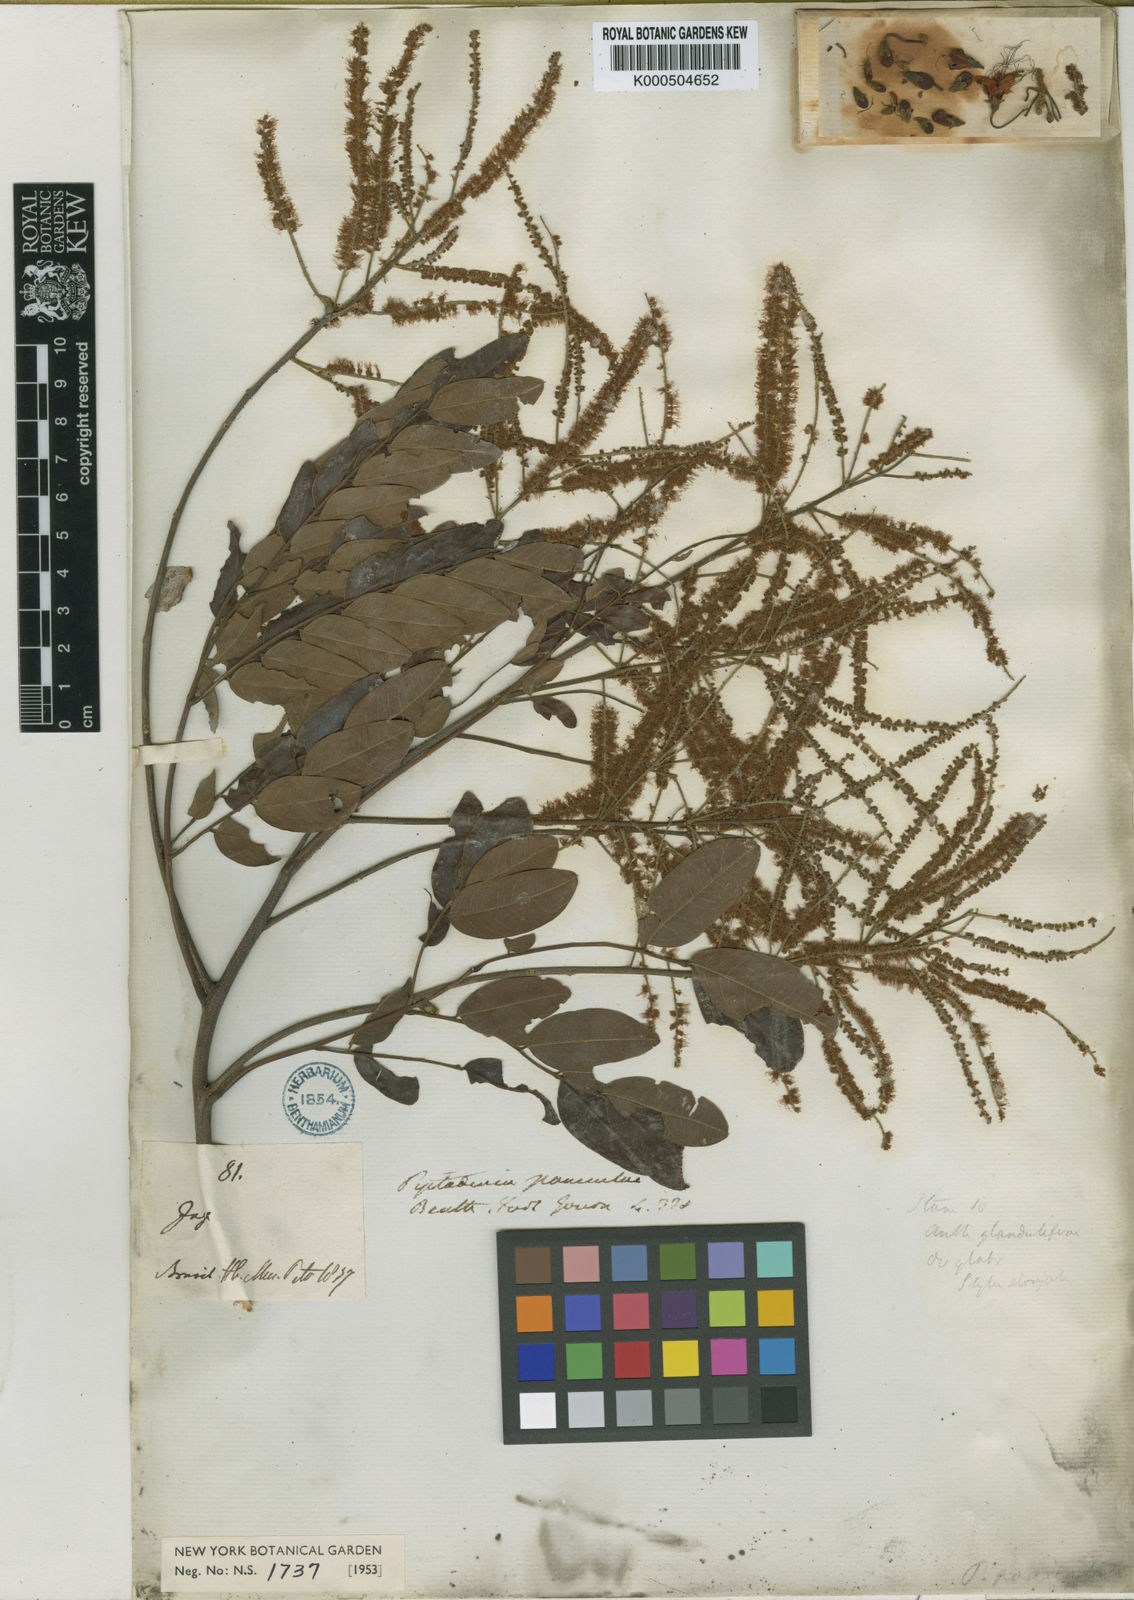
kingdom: Plantae
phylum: Tracheophyta
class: Magnoliopsida
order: Fabales
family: Fabaceae
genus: Piptadenia
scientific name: Piptadenia paniculata
